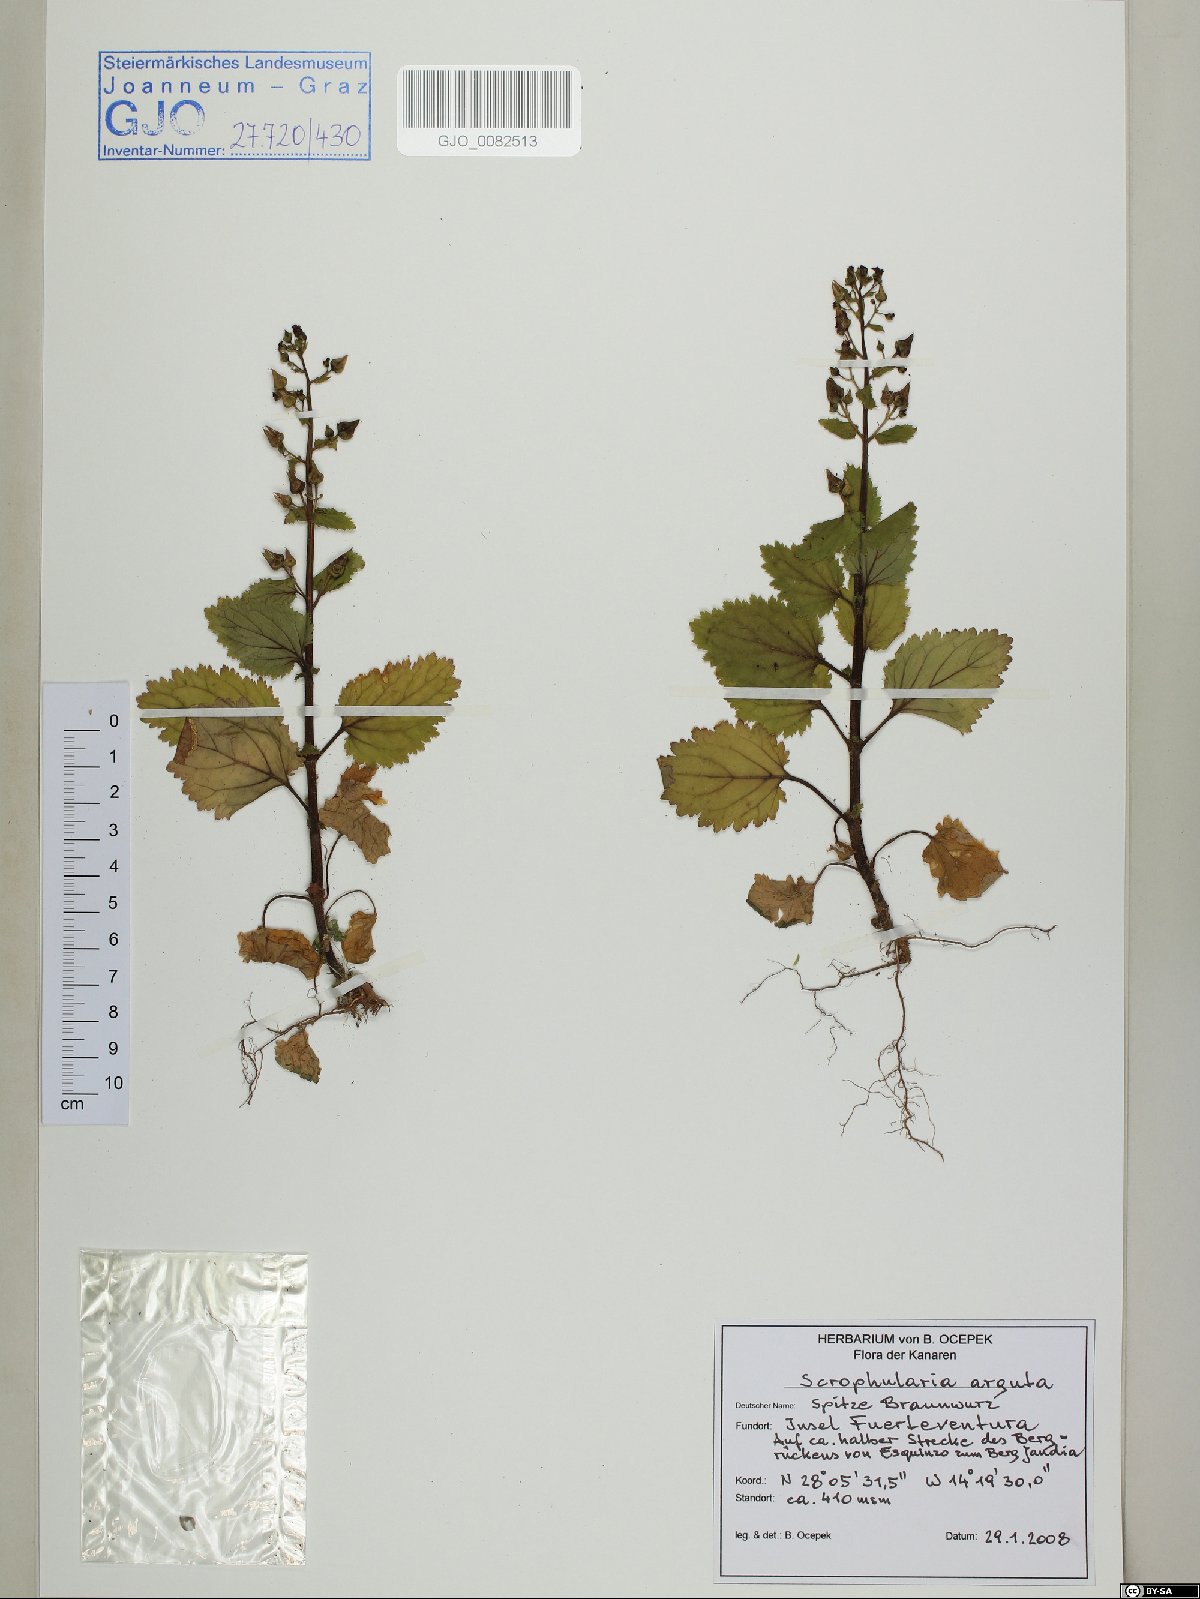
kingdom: Plantae
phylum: Tracheophyta
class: Magnoliopsida
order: Lamiales
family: Scrophulariaceae
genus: Scrophularia
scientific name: Scrophularia arguta
